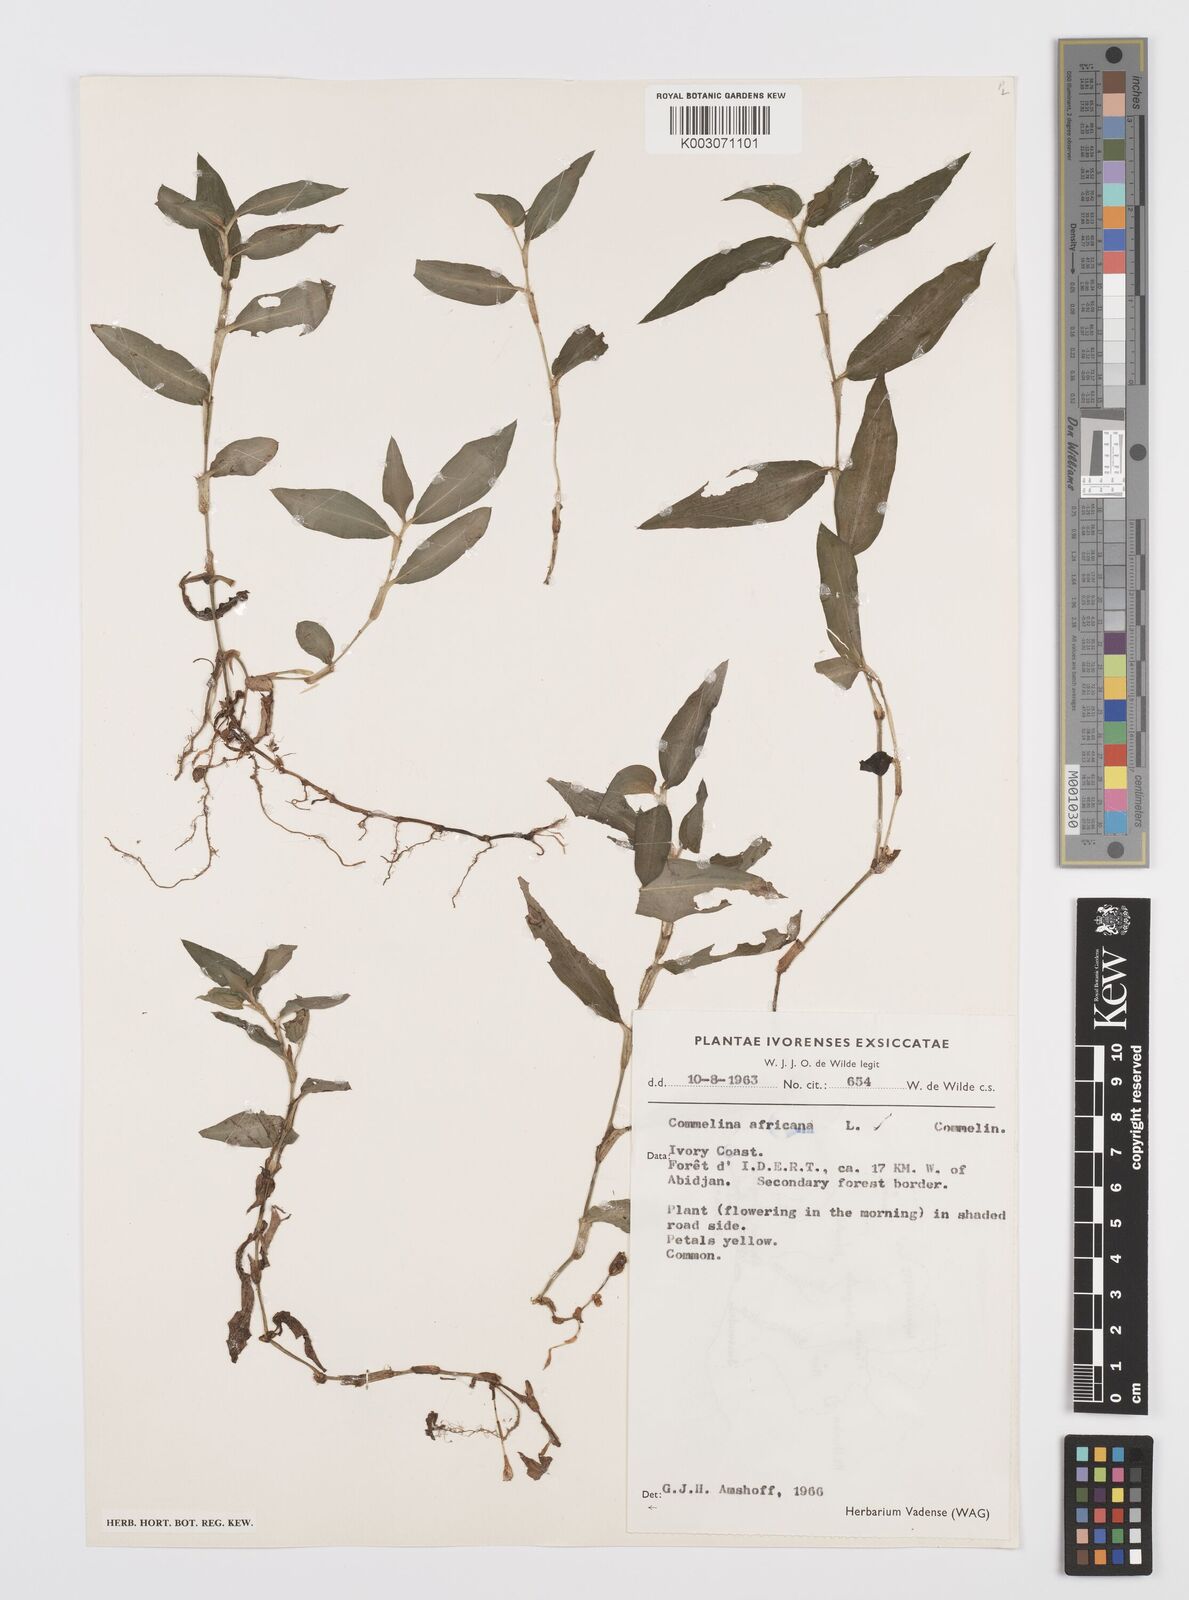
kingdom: Plantae
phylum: Tracheophyta
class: Liliopsida
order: Commelinales
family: Commelinaceae
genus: Commelina
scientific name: Commelina africana
